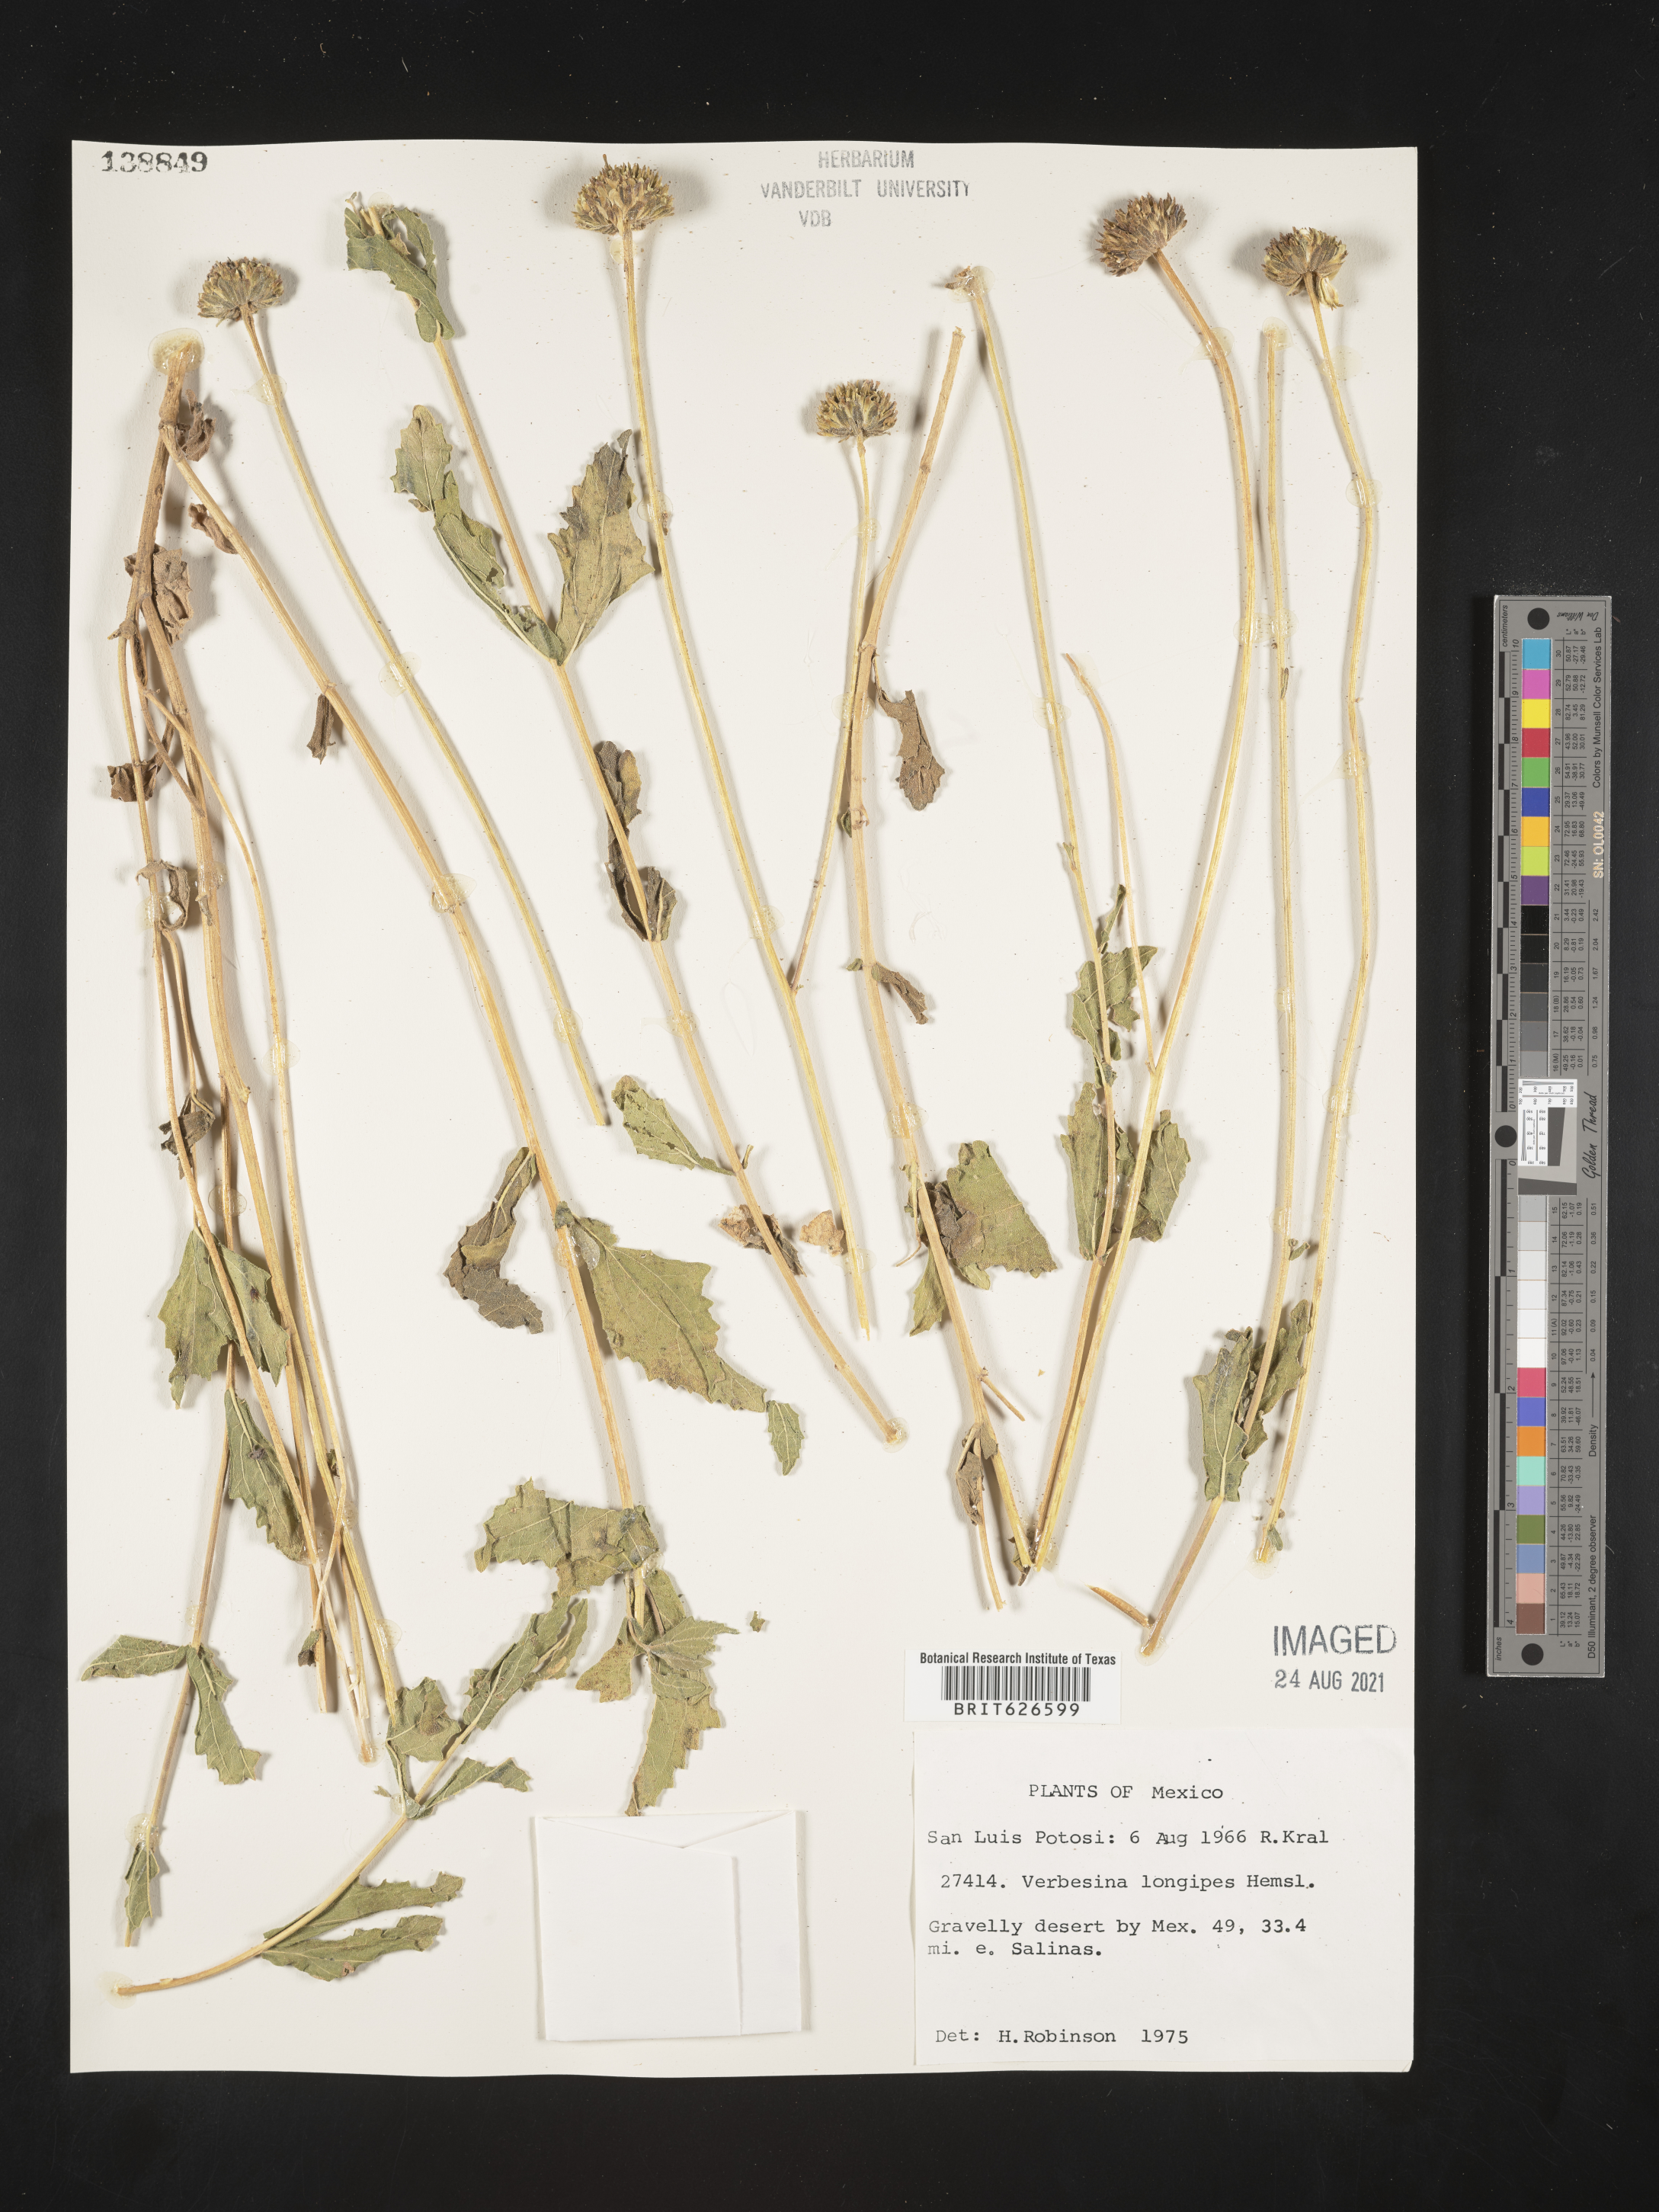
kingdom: Plantae
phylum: Tracheophyta
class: Magnoliopsida
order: Asterales
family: Asteraceae
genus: Verbesina
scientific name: Verbesina
